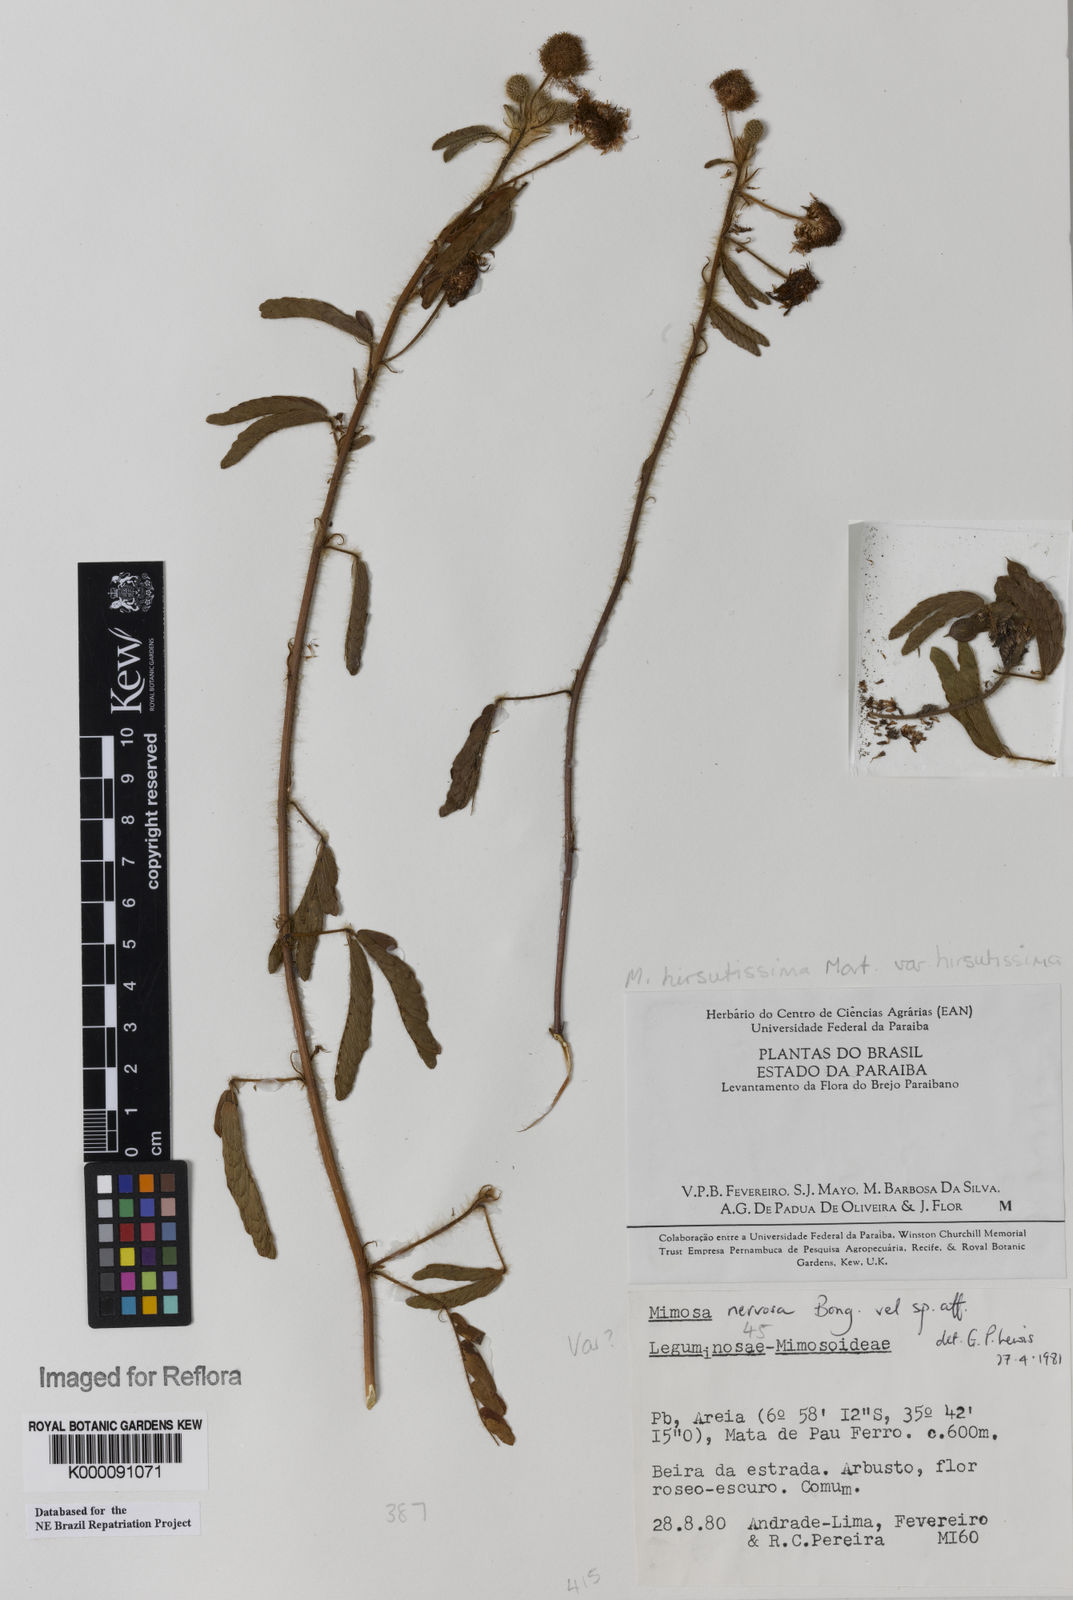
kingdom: Plantae
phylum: Tracheophyta
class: Magnoliopsida
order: Fabales
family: Fabaceae
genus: Mimosa
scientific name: Mimosa hirsutissima
